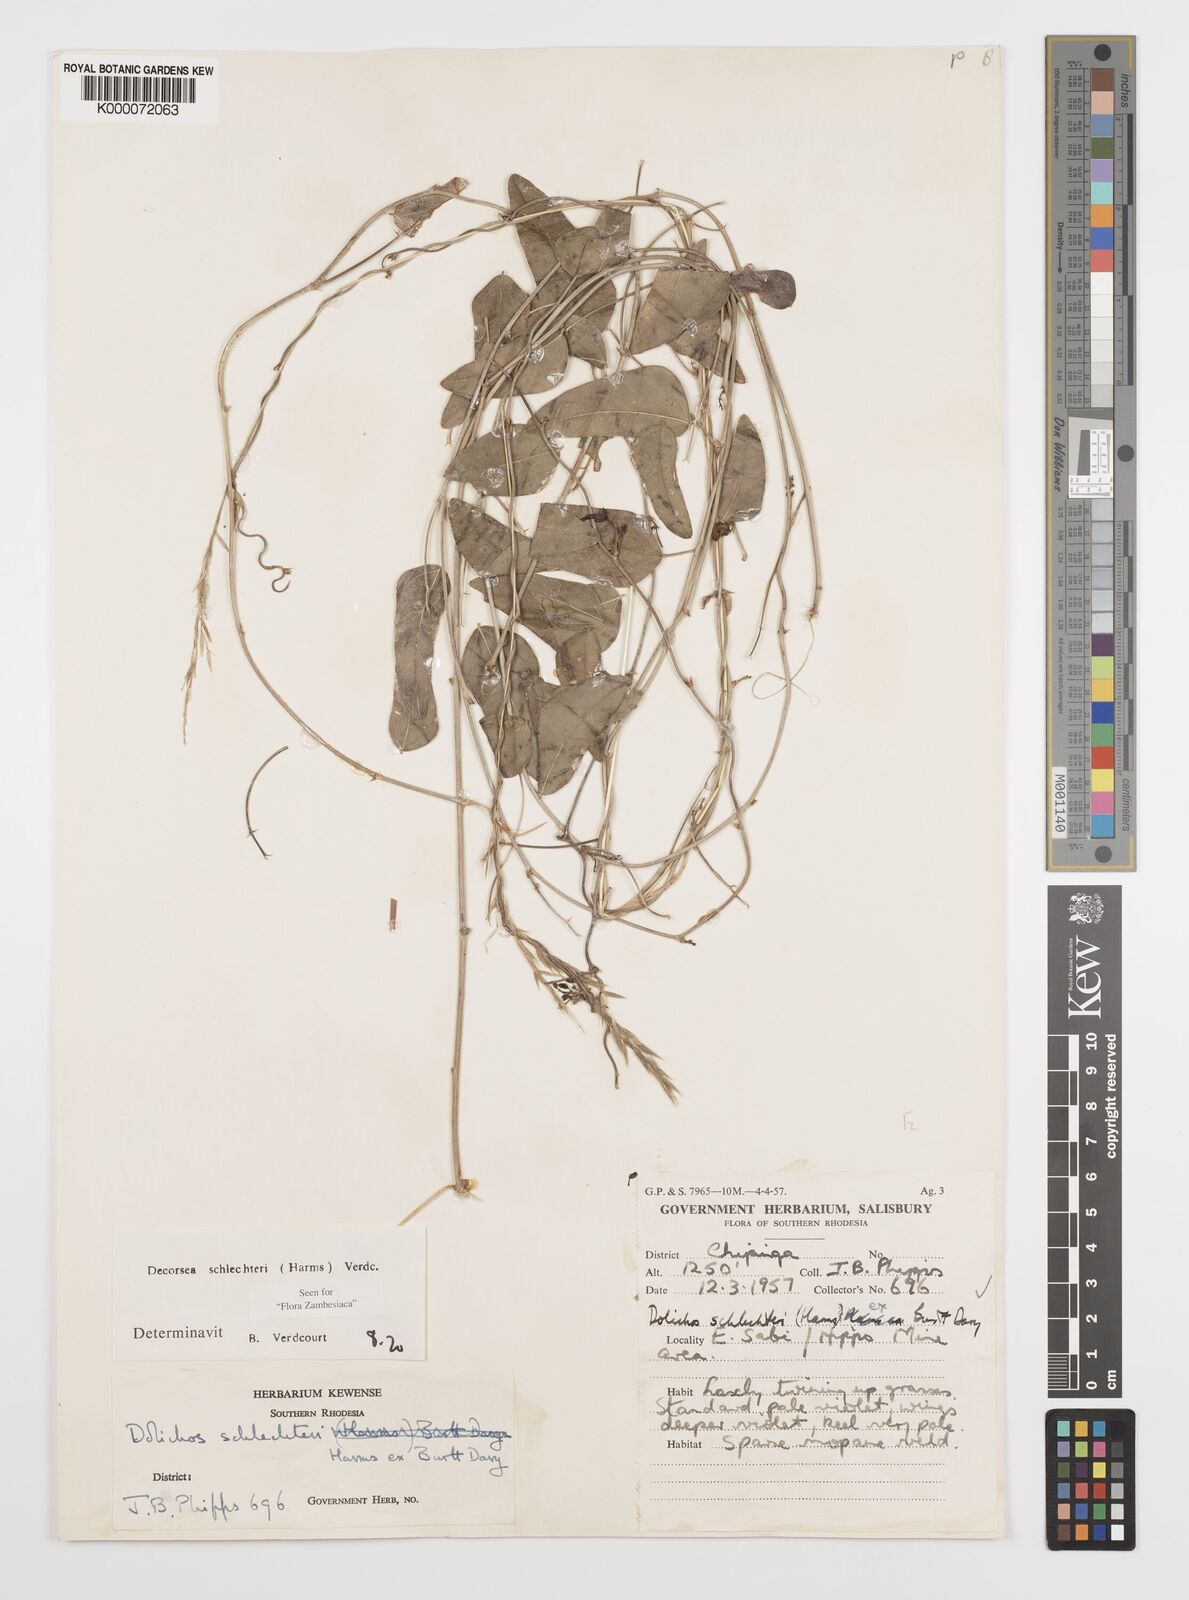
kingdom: Plantae
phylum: Tracheophyta
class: Magnoliopsida
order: Fabales
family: Fabaceae
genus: Decorsea
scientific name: Decorsea schlechteri
